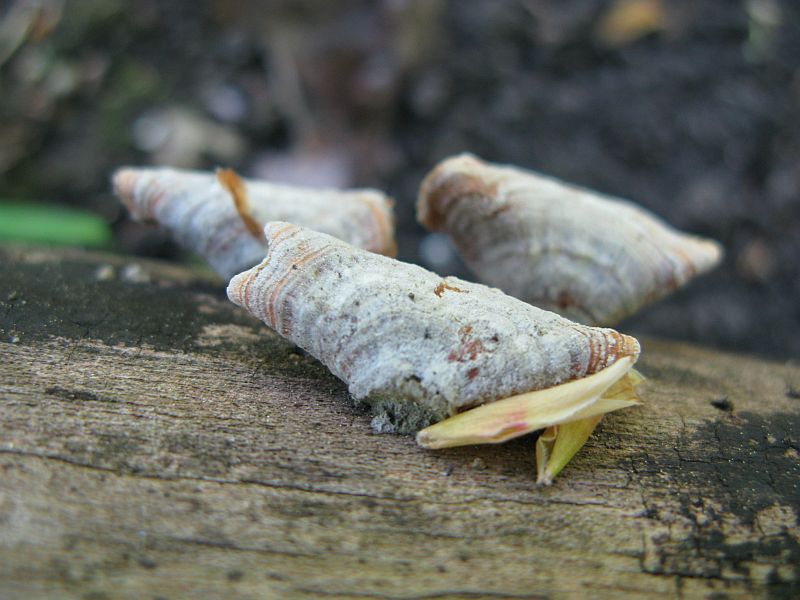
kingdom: Fungi
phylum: Basidiomycota
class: Agaricomycetes
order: Russulales
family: Stereaceae
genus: Stereum
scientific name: Stereum subtomentosum
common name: smuk lædersvamp
